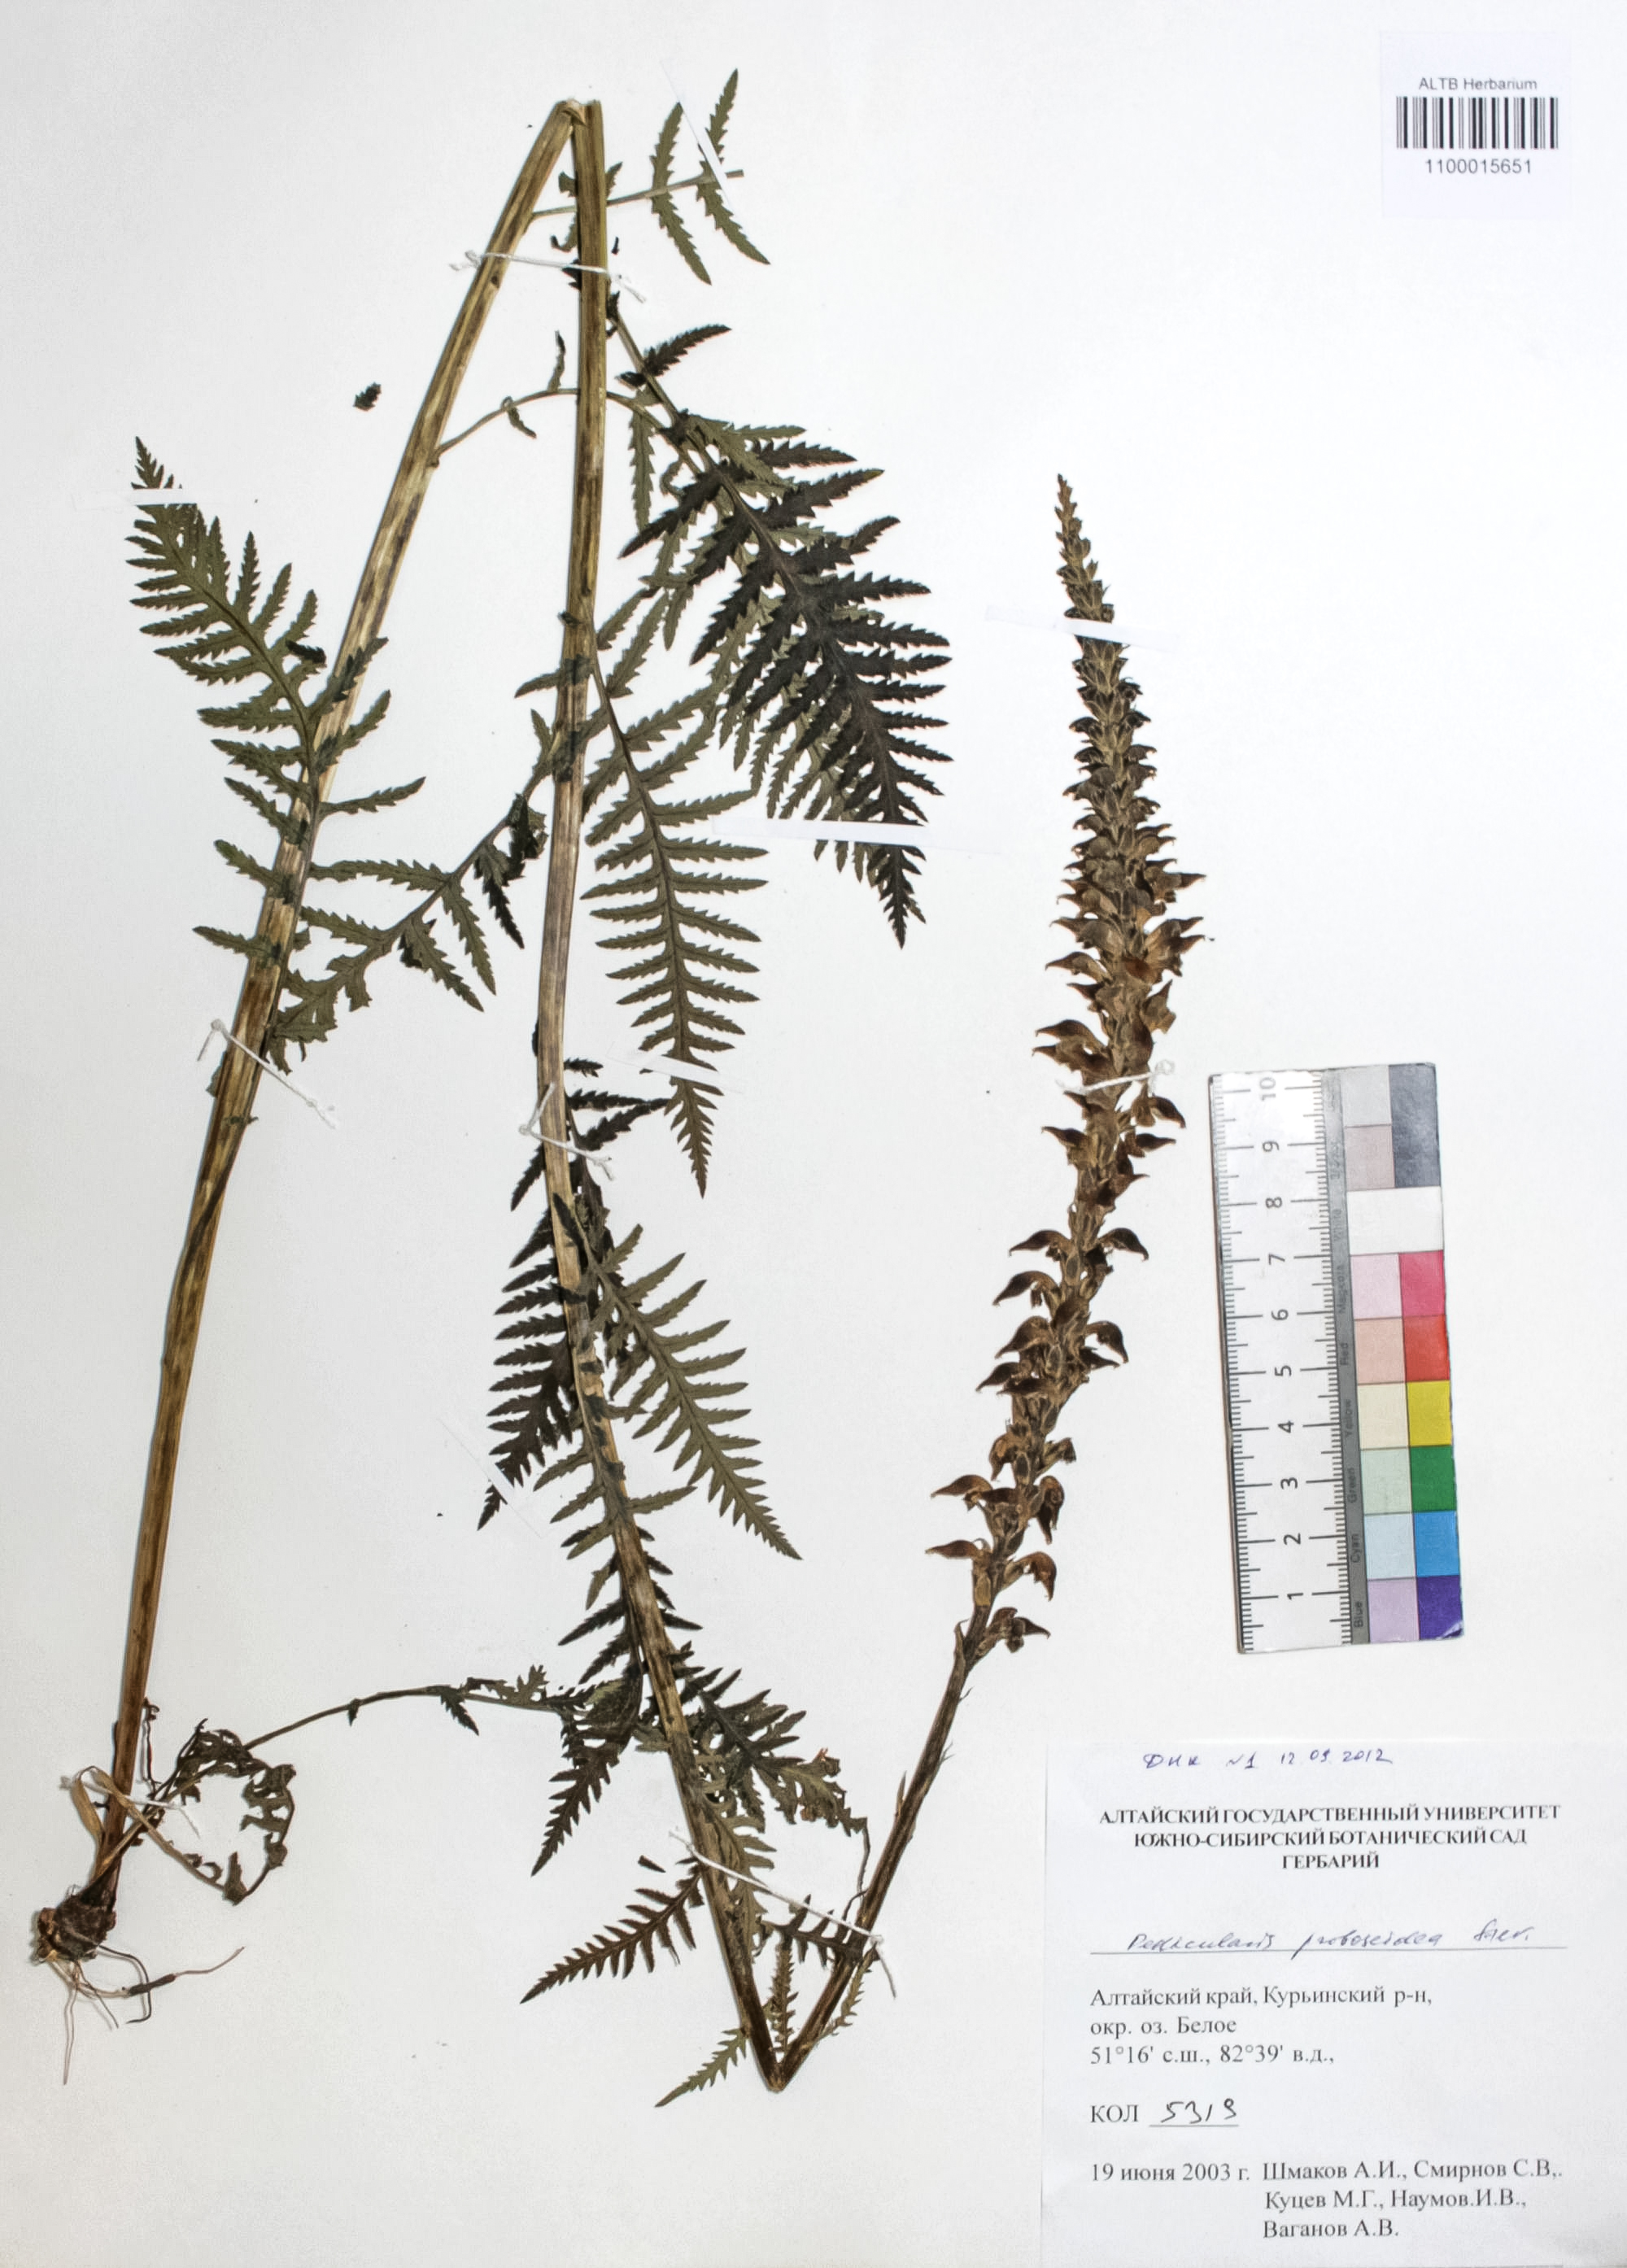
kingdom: Plantae
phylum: Tracheophyta
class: Magnoliopsida
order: Lamiales
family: Orobanchaceae
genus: Pedicularis
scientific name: Pedicularis proboscidea
